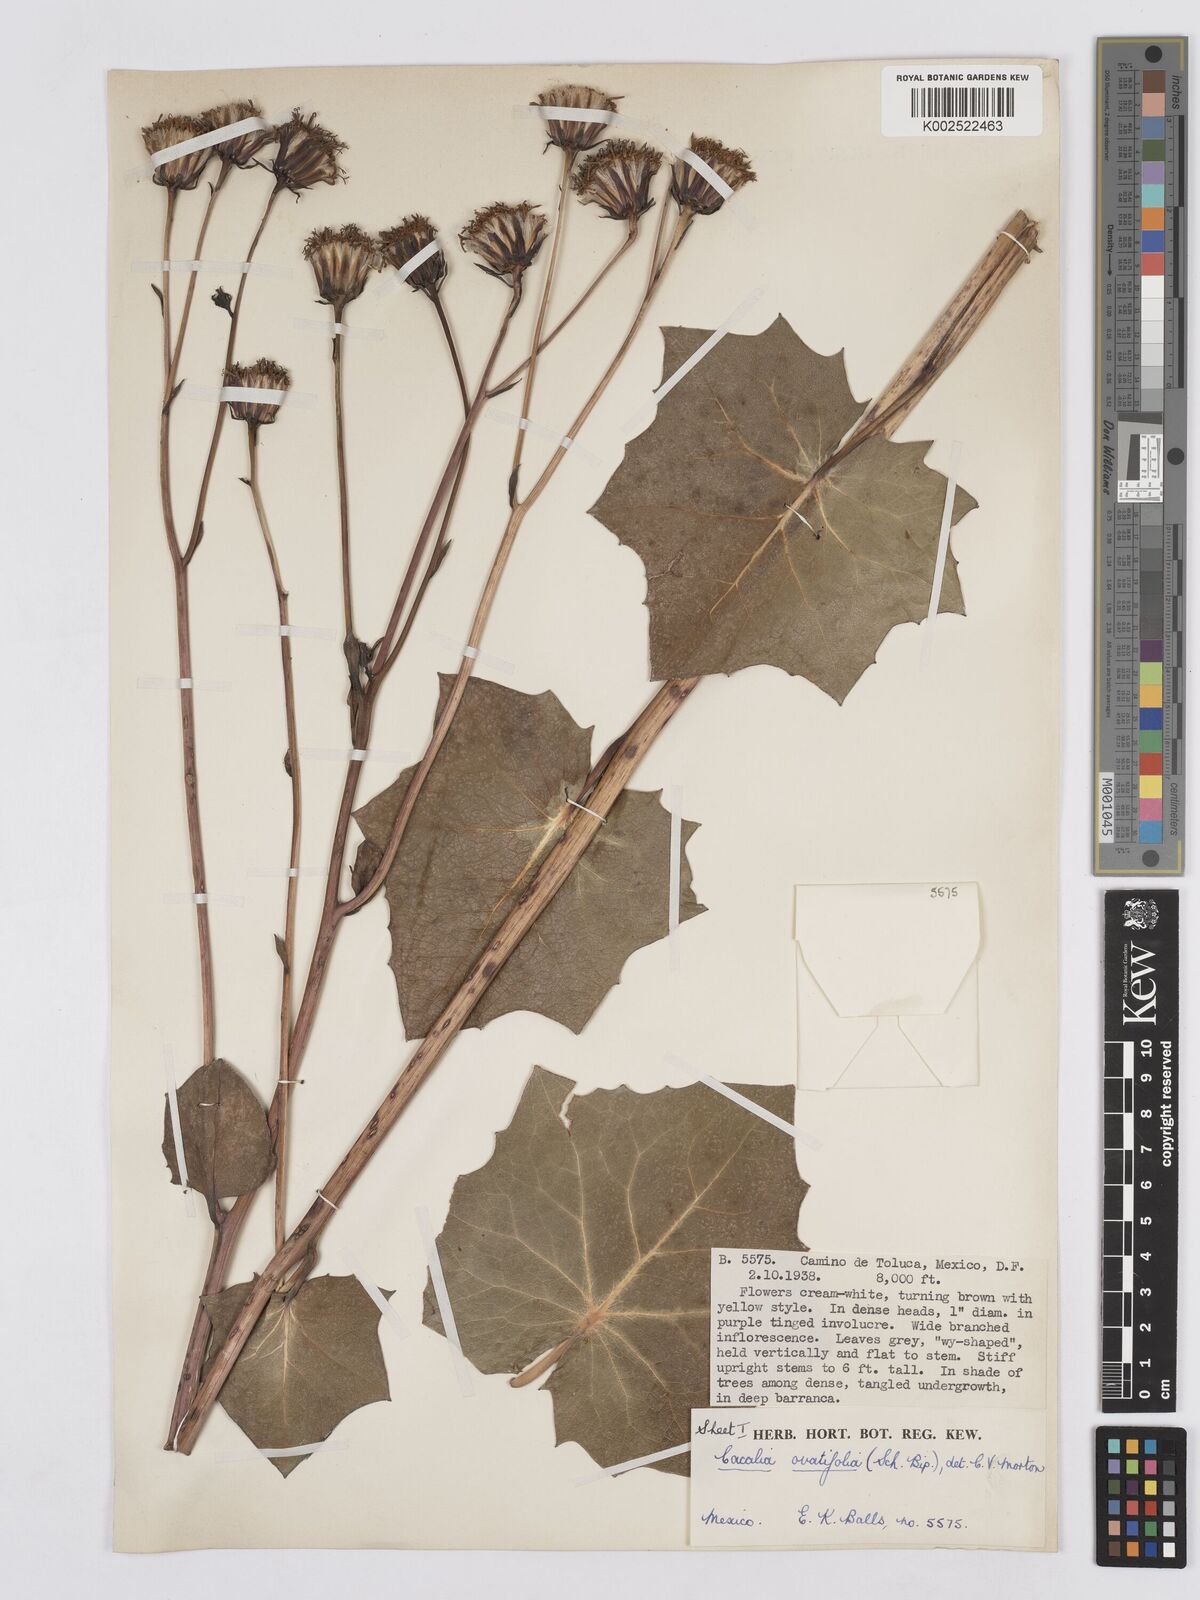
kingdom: Plantae
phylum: Tracheophyta
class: Magnoliopsida
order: Asterales
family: Asteraceae
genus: Roldana
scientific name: Roldana sessilifolia
